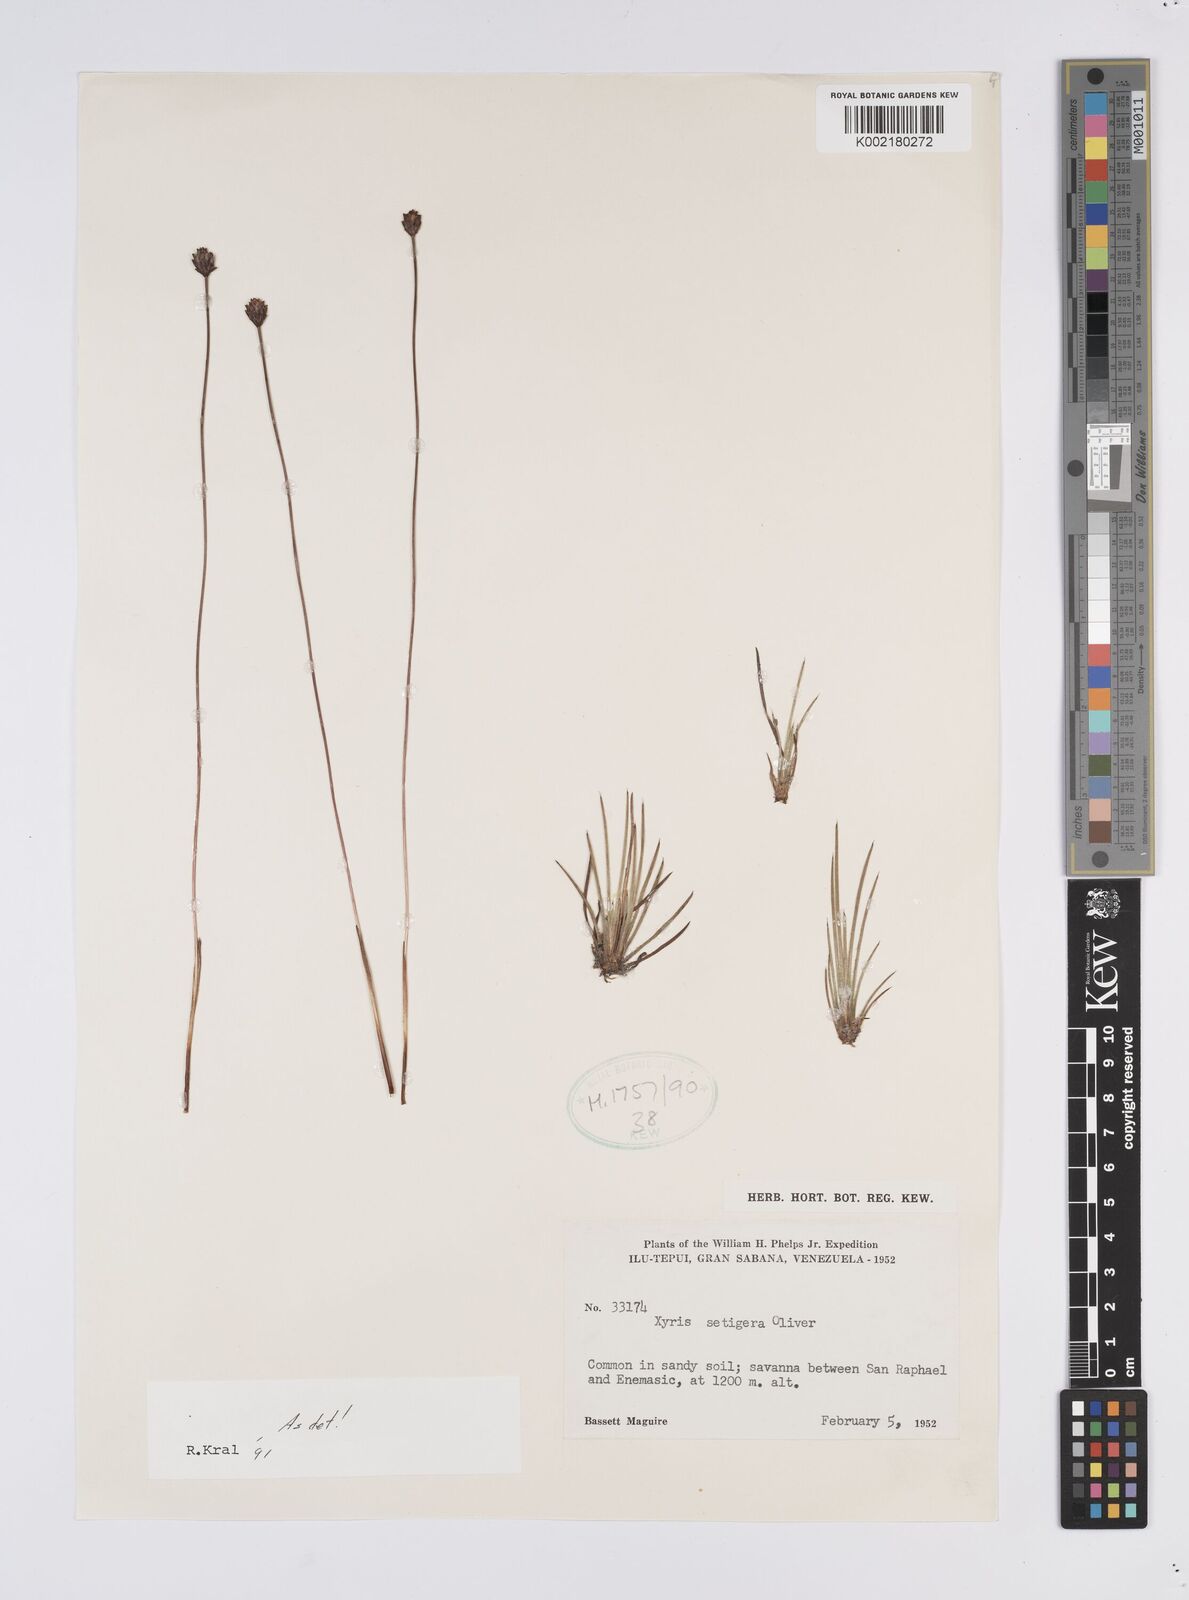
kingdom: Plantae
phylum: Tracheophyta
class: Liliopsida
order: Poales
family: Xyridaceae
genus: Xyris
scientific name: Xyris setigera
